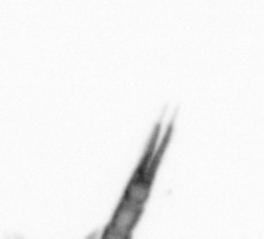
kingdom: Animalia
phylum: Arthropoda
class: Copepoda
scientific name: Copepoda
